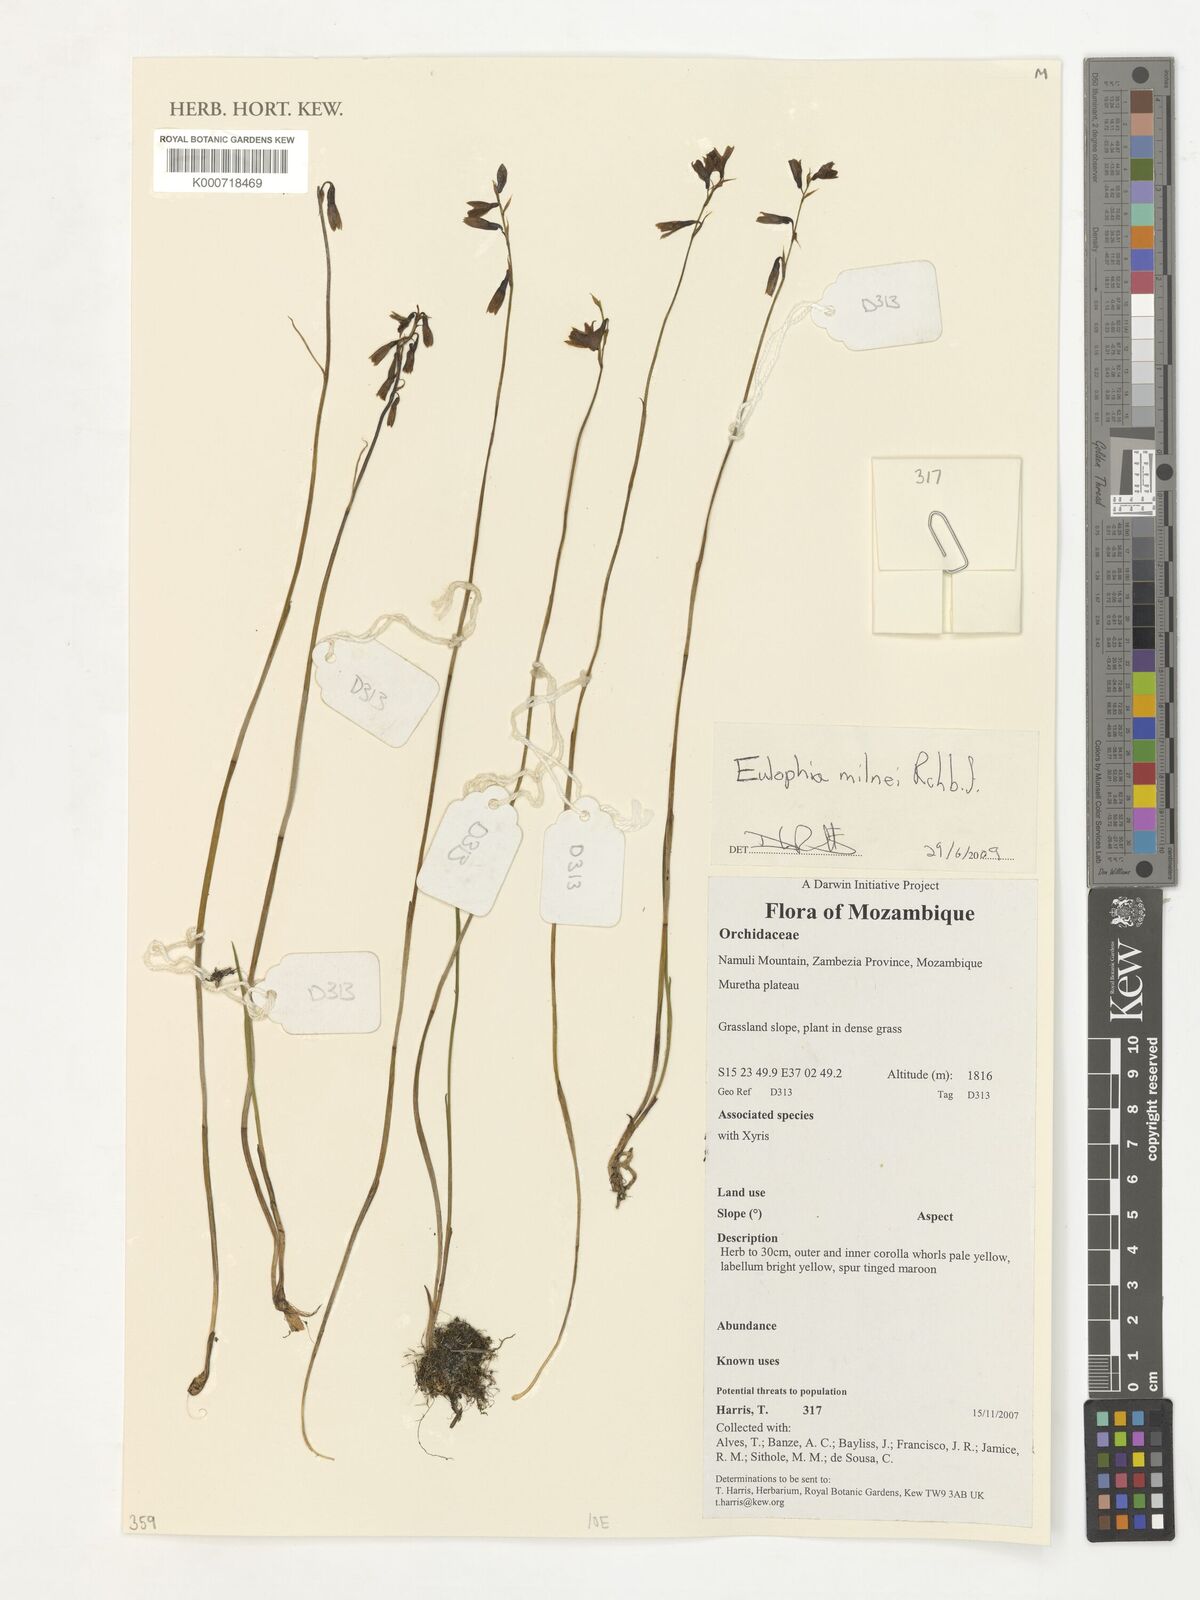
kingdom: Plantae
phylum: Tracheophyta
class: Liliopsida
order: Asparagales
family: Orchidaceae
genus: Eulophia
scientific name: Eulophia milnei
